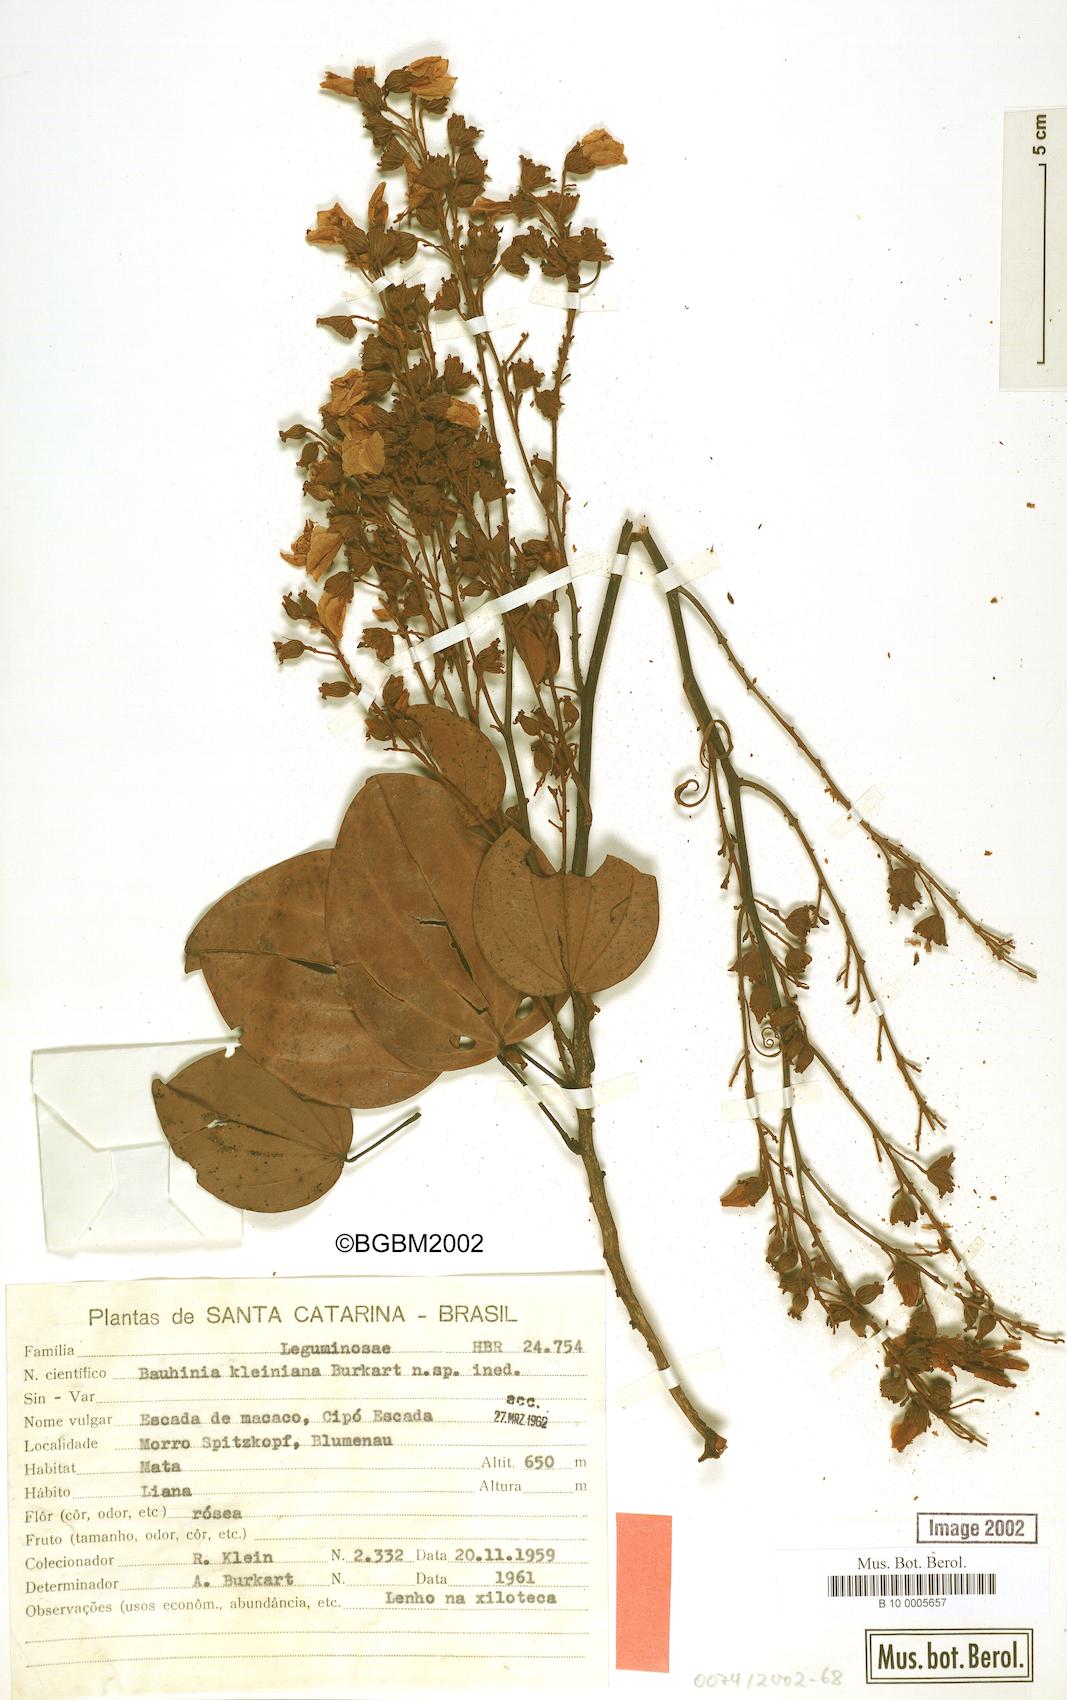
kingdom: Plantae
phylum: Tracheophyta
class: Magnoliopsida
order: Fabales
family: Fabaceae
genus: Bauhinia
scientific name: Bauhinia kleiniana
